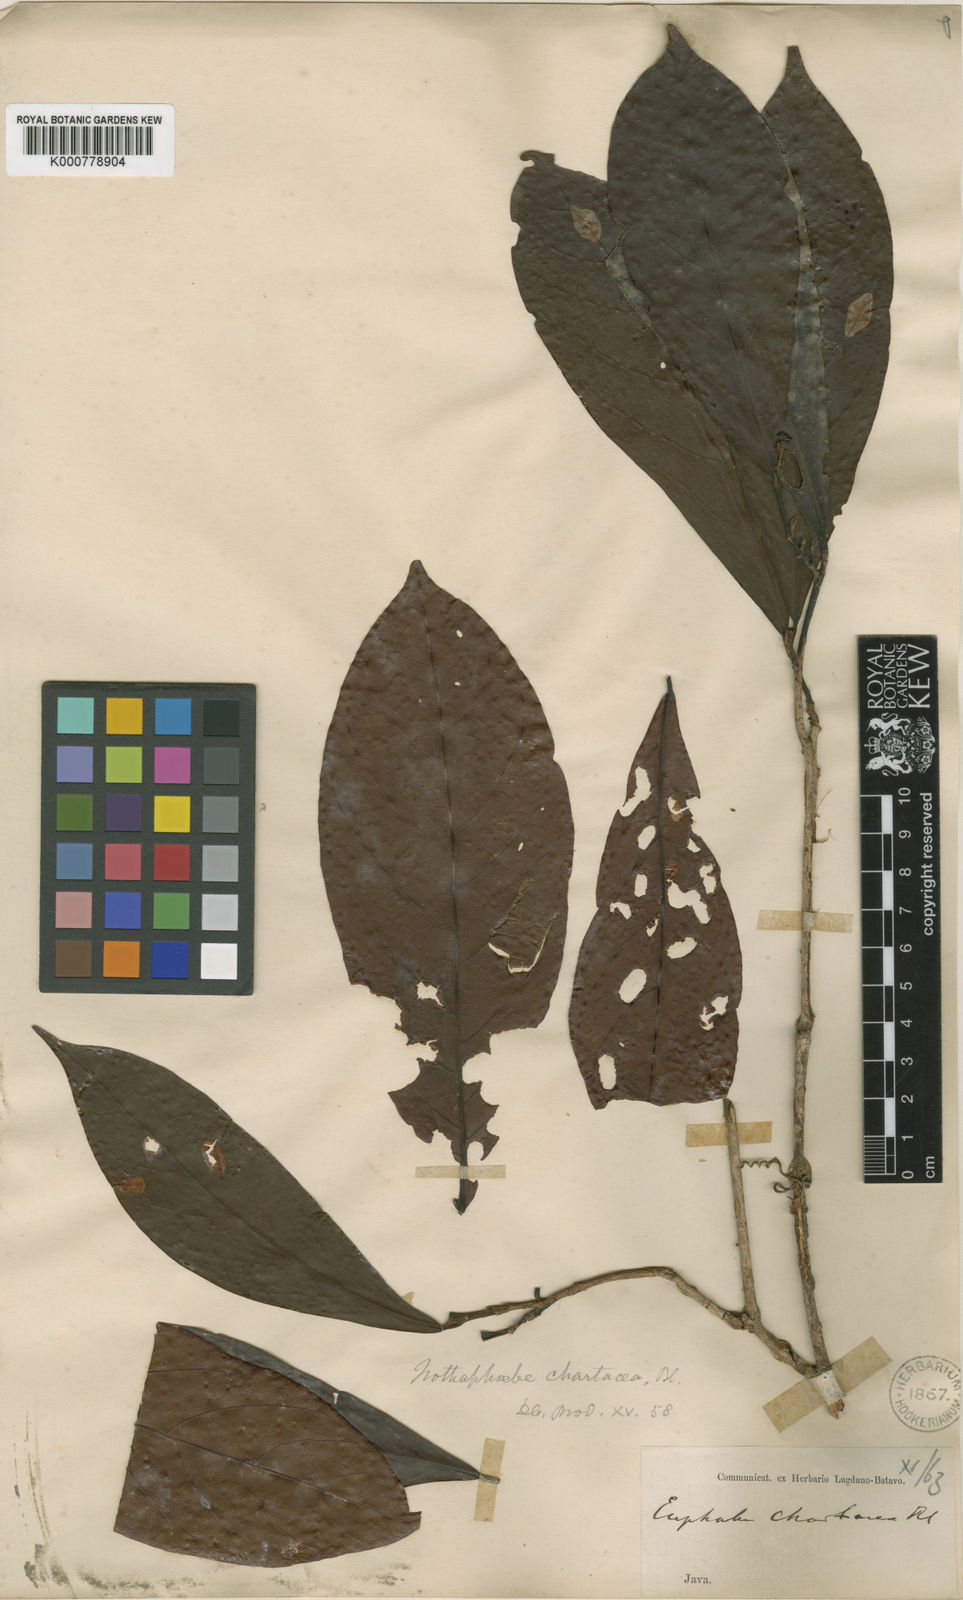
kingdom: Plantae
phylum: Tracheophyta
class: Magnoliopsida
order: Laurales
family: Lauraceae
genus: Phoebe
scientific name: Phoebe chartacea
